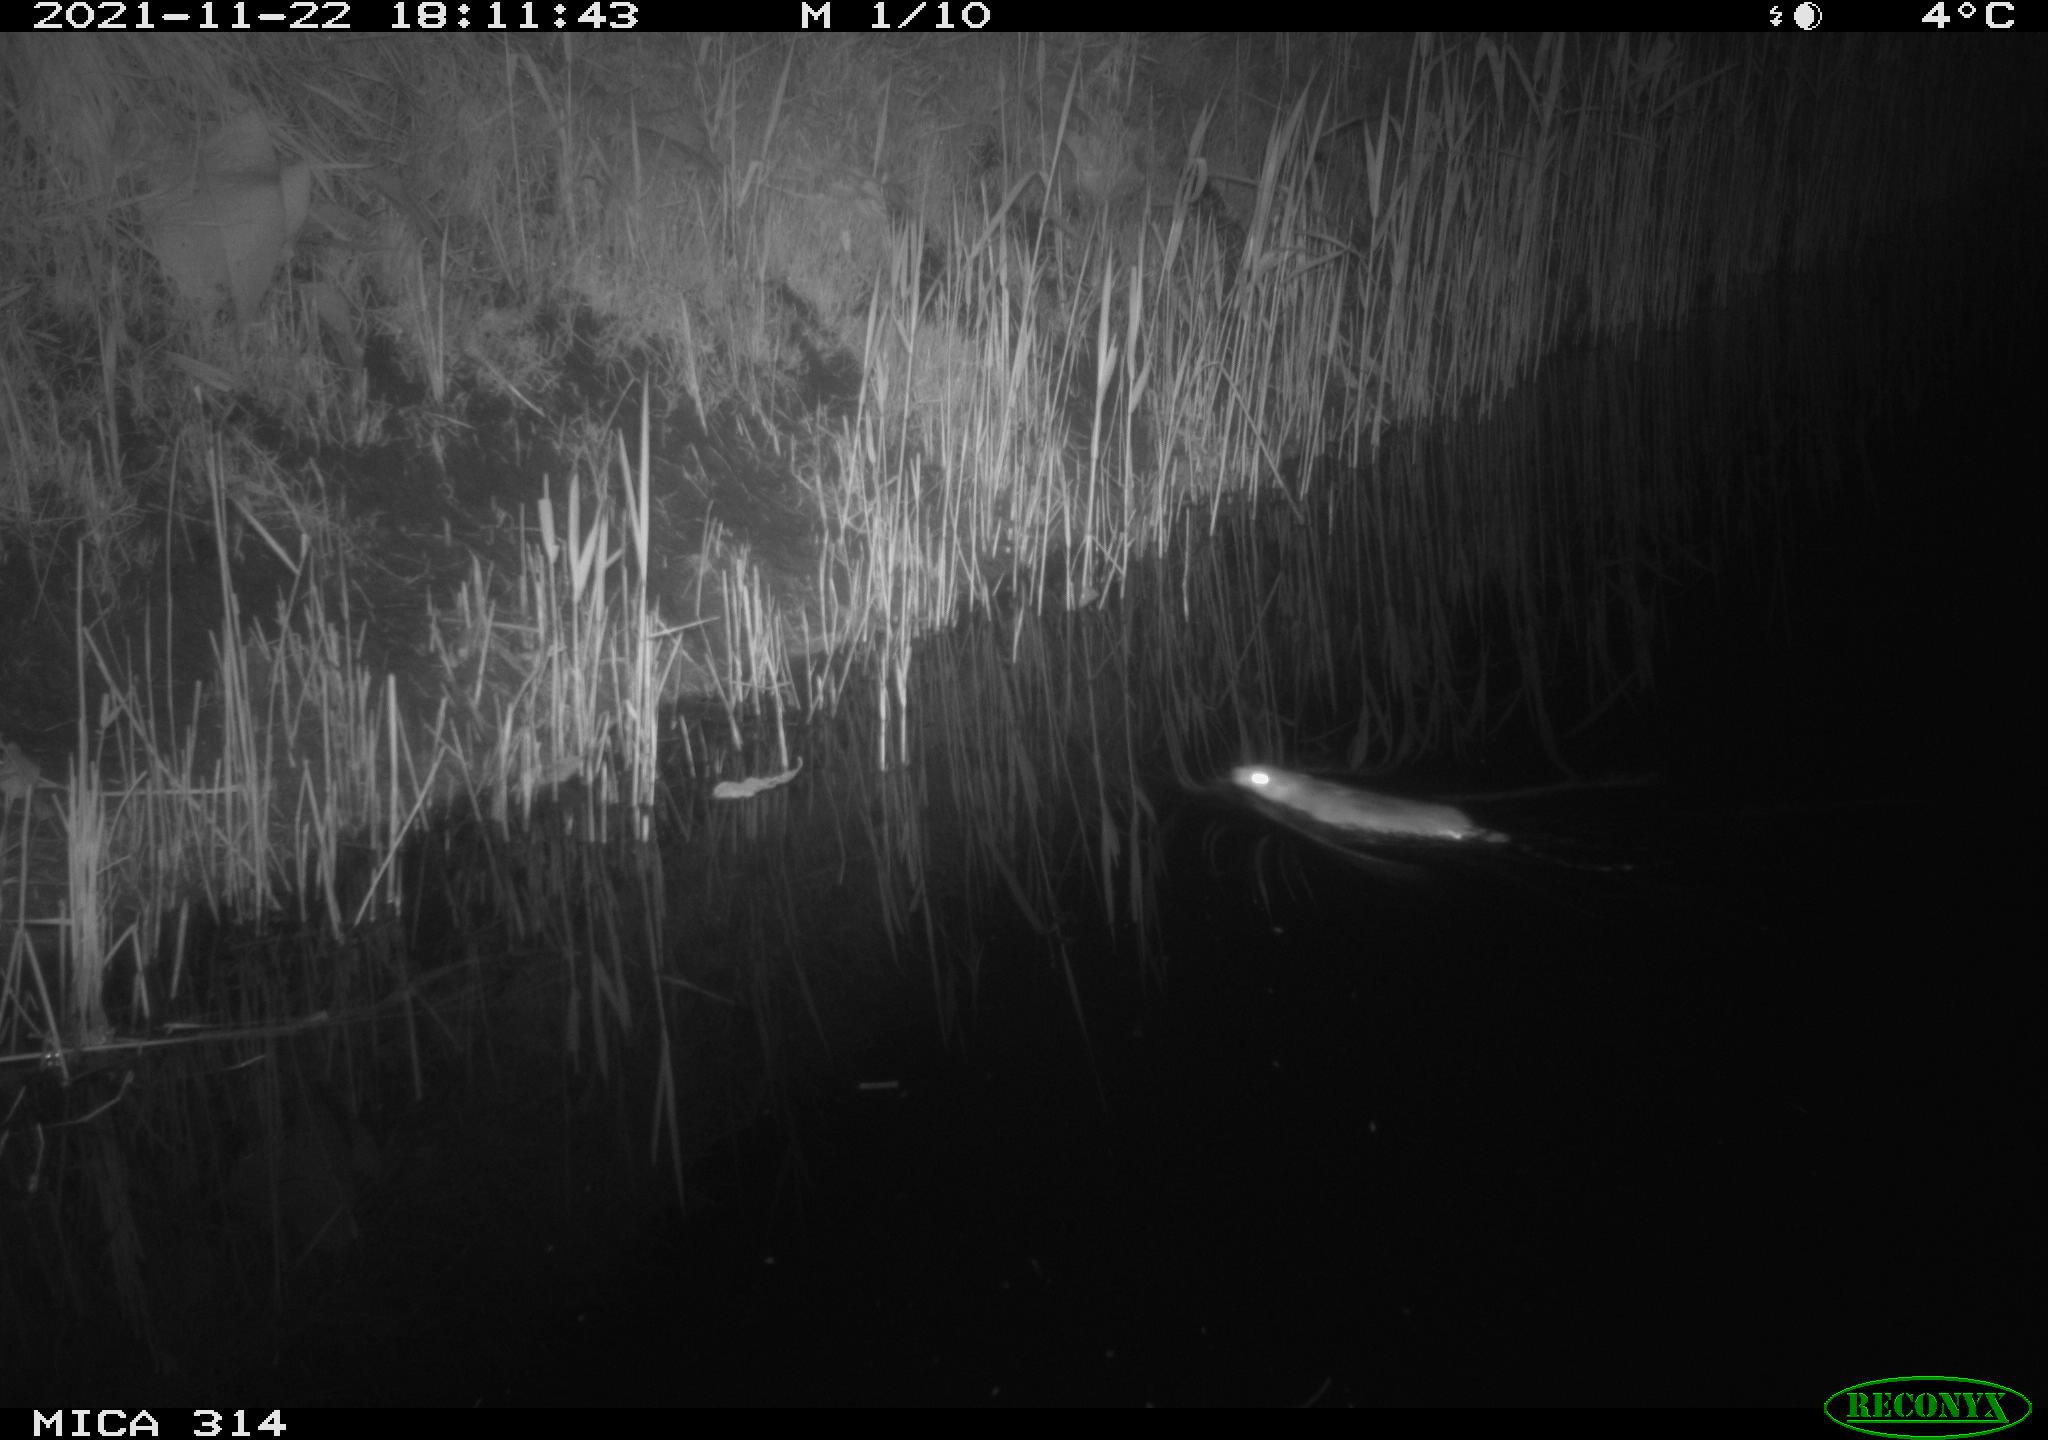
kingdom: Animalia
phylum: Chordata
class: Mammalia
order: Rodentia
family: Muridae
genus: Rattus
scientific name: Rattus norvegicus
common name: Brown rat
